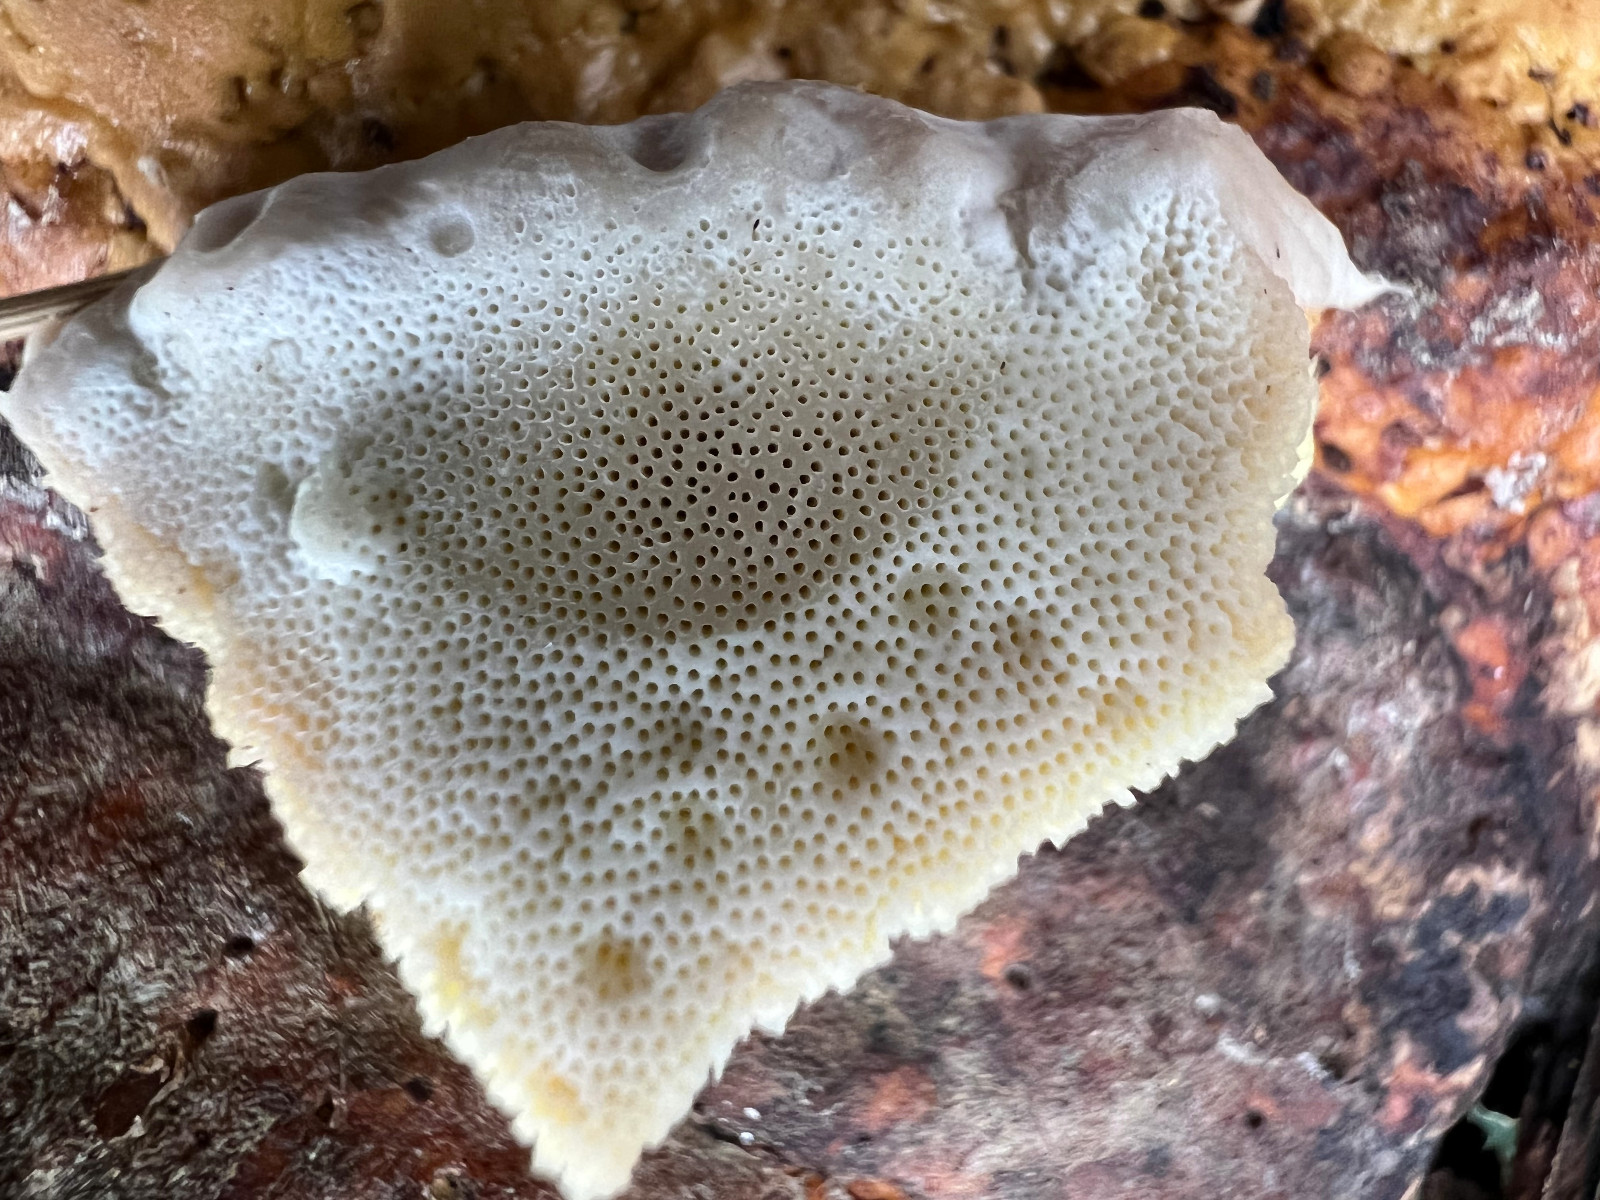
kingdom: Fungi
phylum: Basidiomycota
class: Agaricomycetes
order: Polyporales
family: Fomitopsidaceae
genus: Fomitopsis
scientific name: Fomitopsis pinicola
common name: randbæltet hovporesvamp
